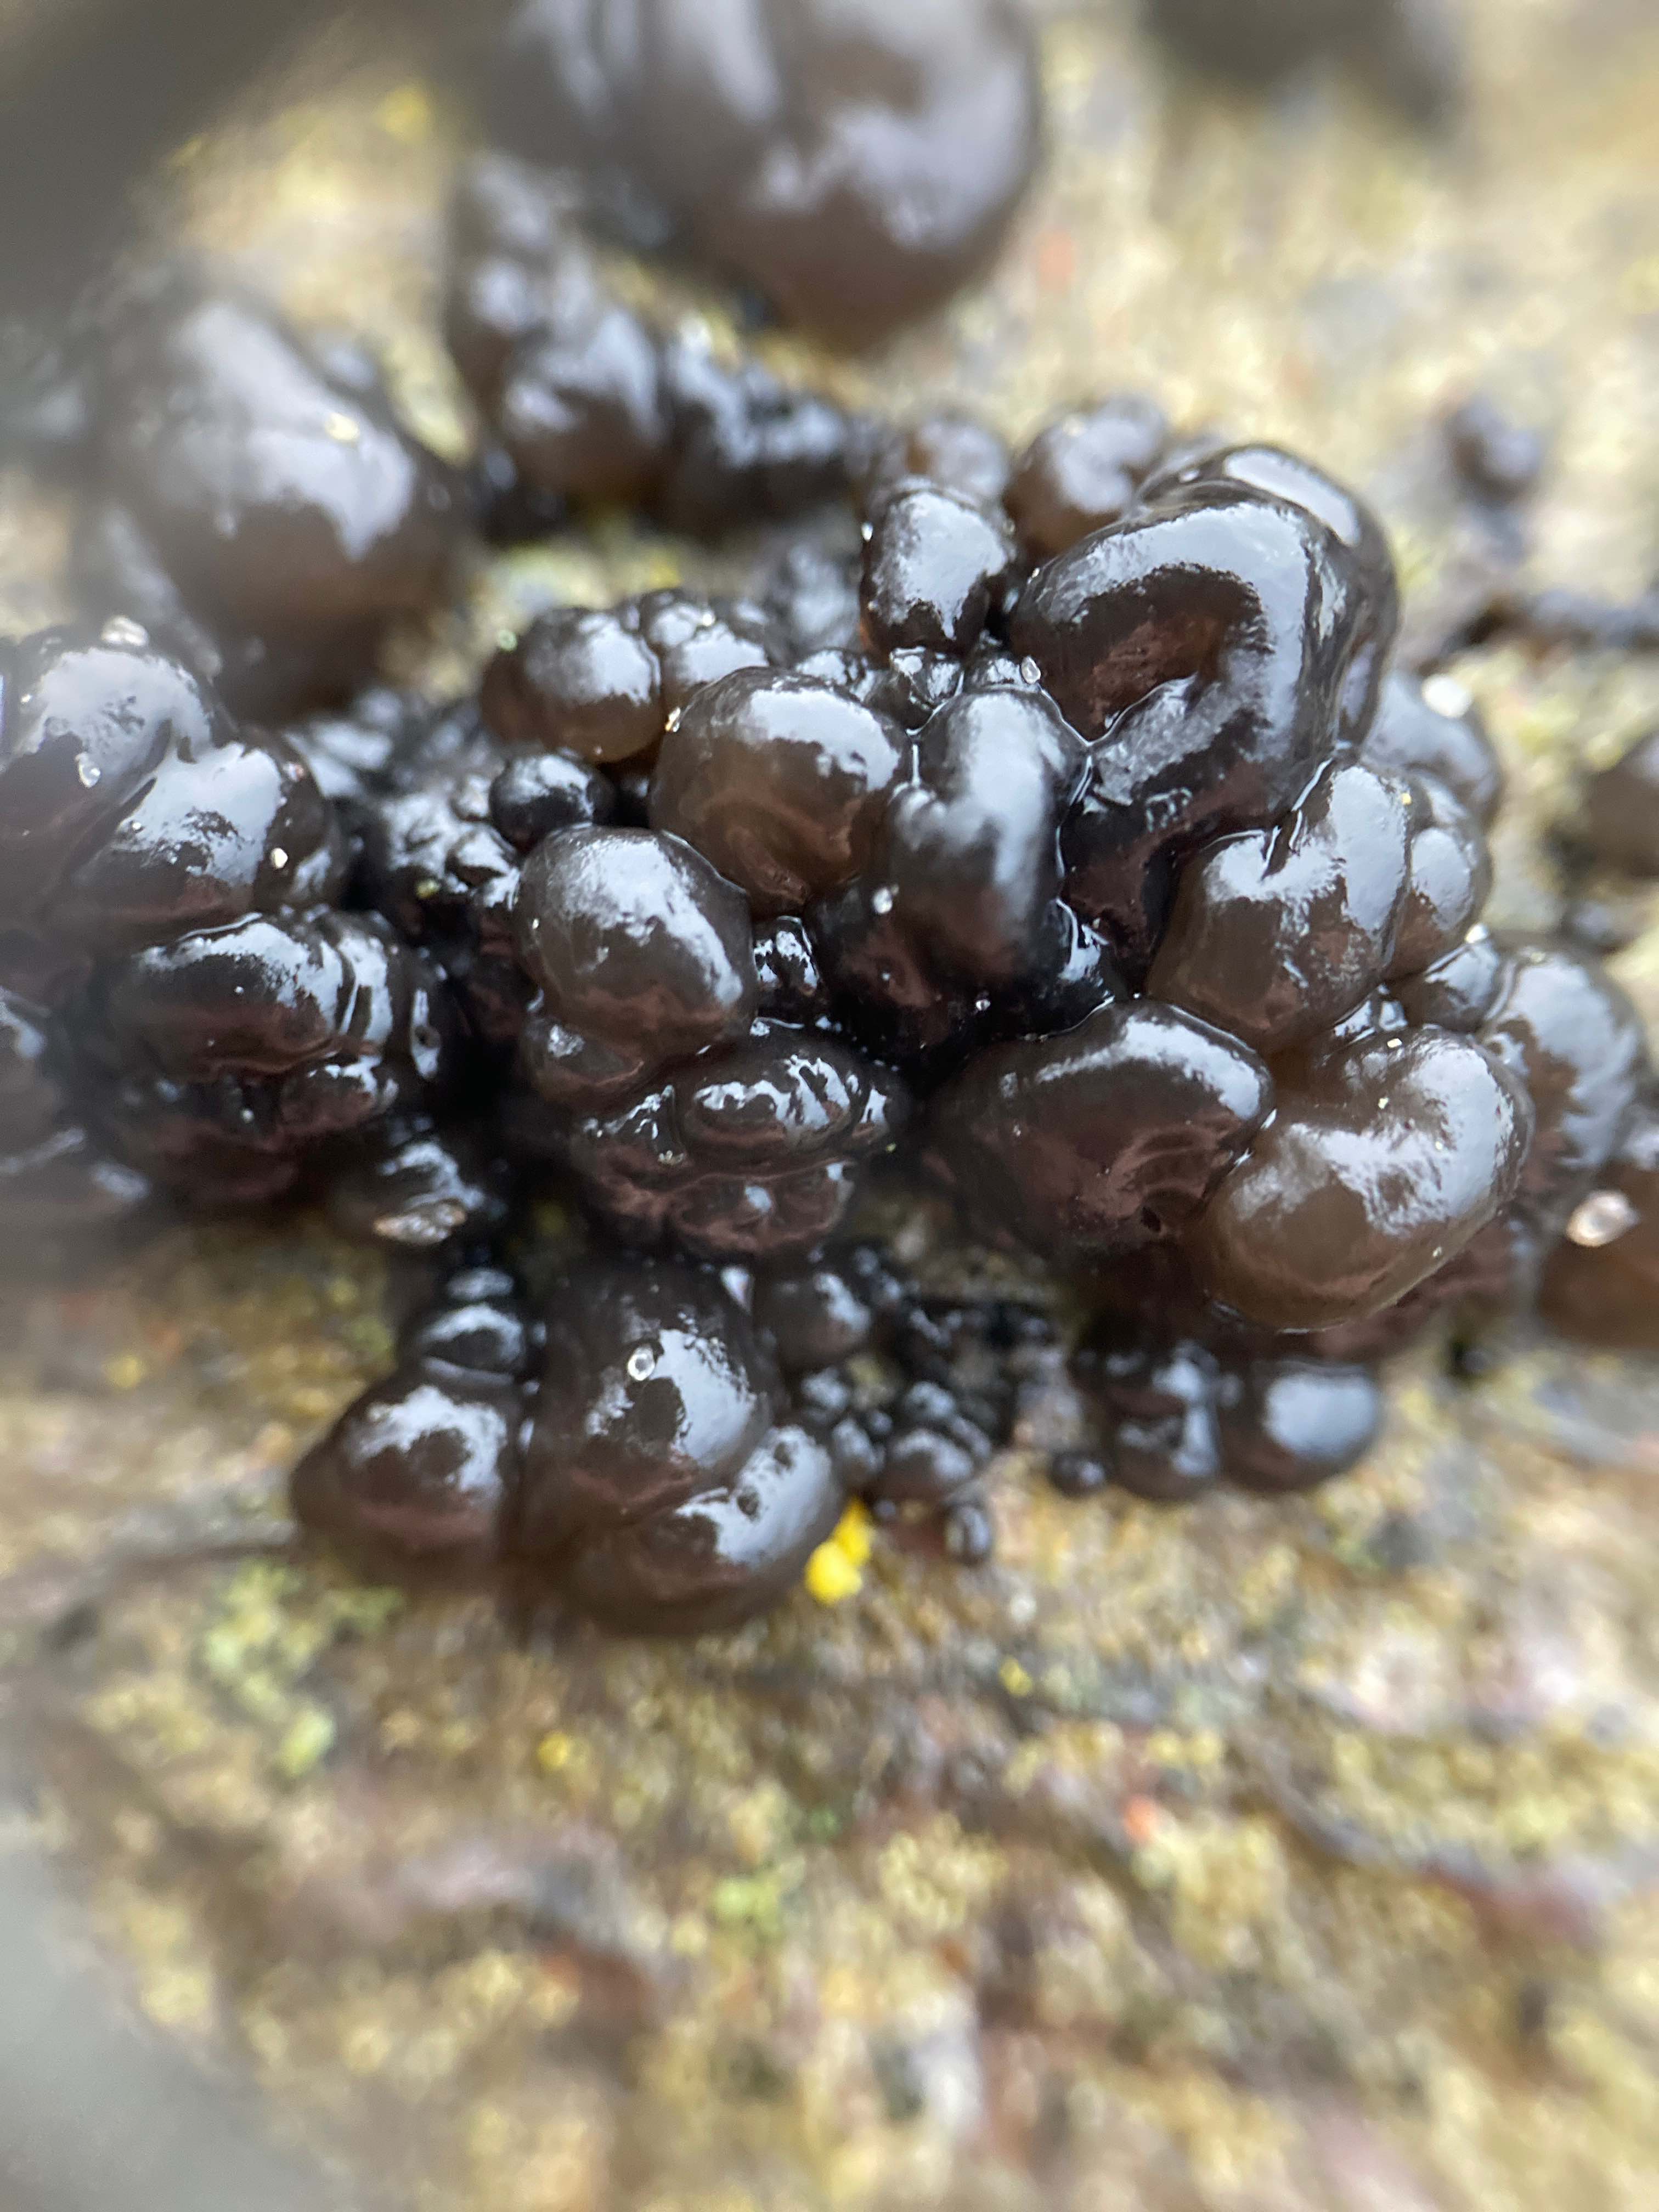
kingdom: Fungi
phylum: Basidiomycota
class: Agaricomycetes
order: Auriculariales
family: Auriculariaceae
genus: Exidia
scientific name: Exidia nigricans
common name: almindelig bævretop
